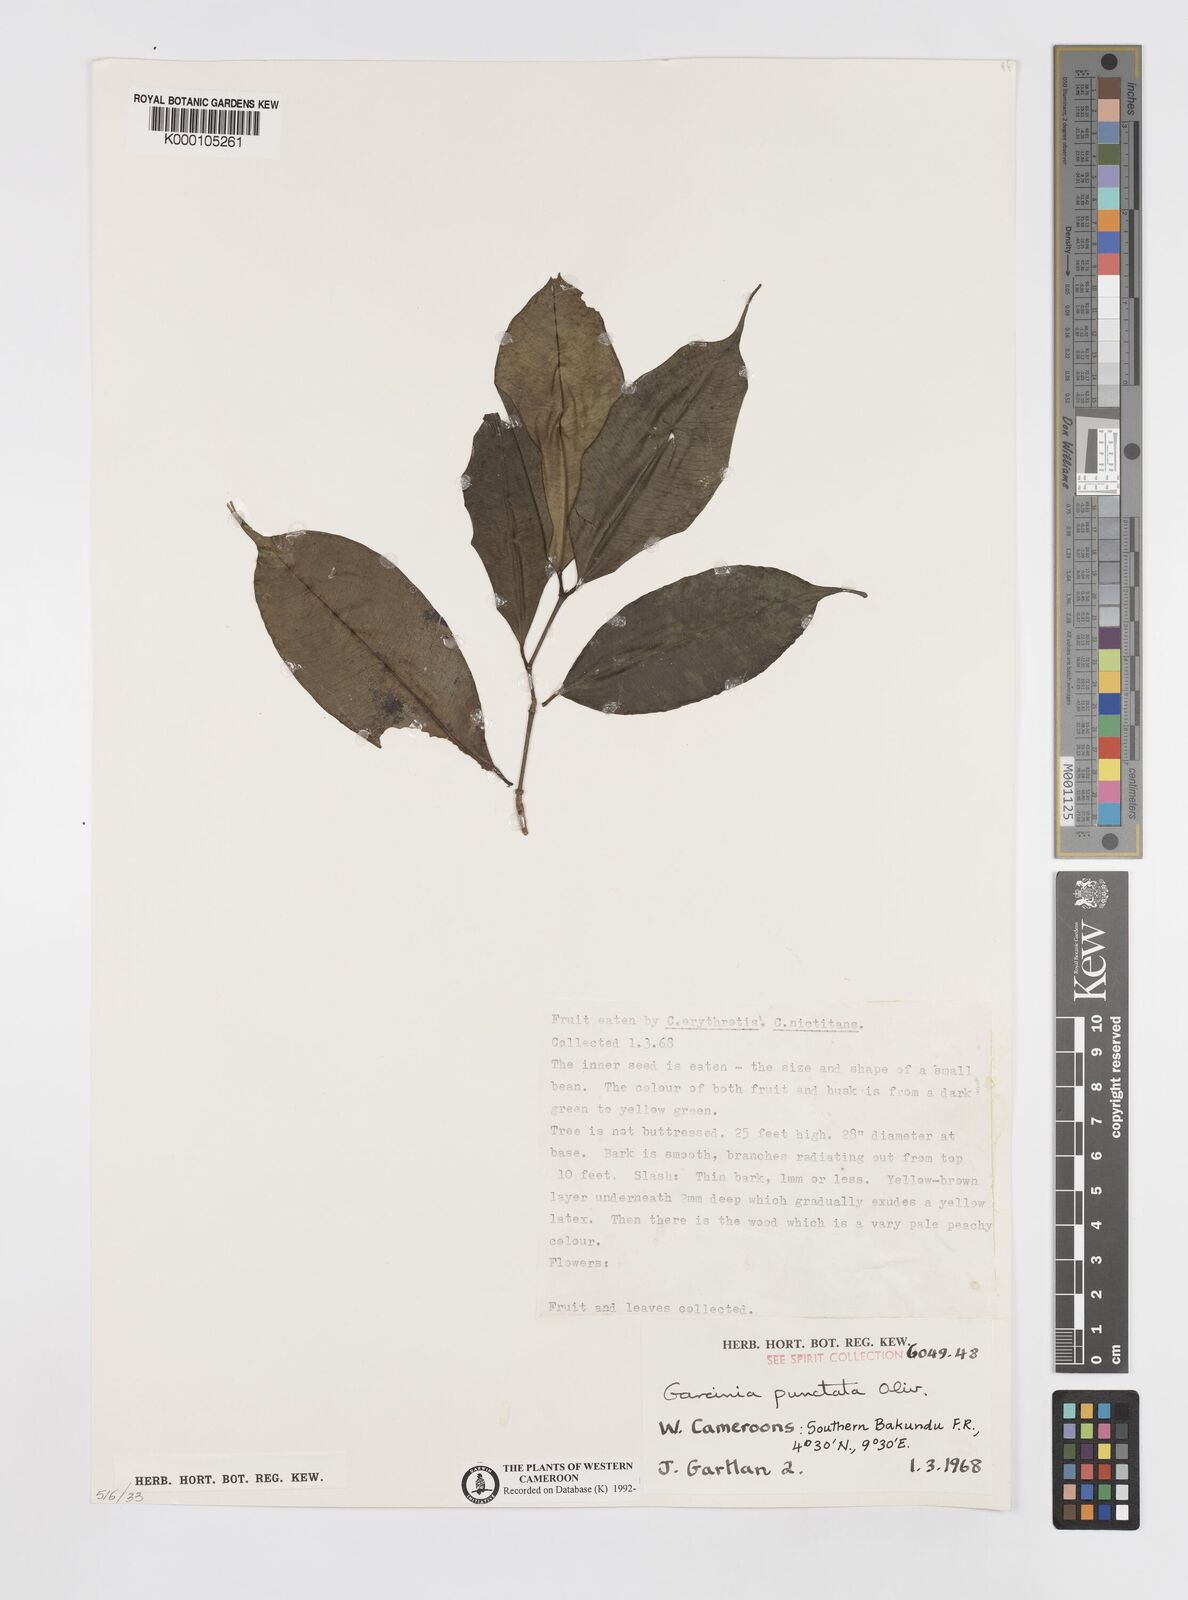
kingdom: Plantae
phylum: Tracheophyta
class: Magnoliopsida
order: Malpighiales
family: Clusiaceae
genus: Garcinia
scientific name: Garcinia punctata
